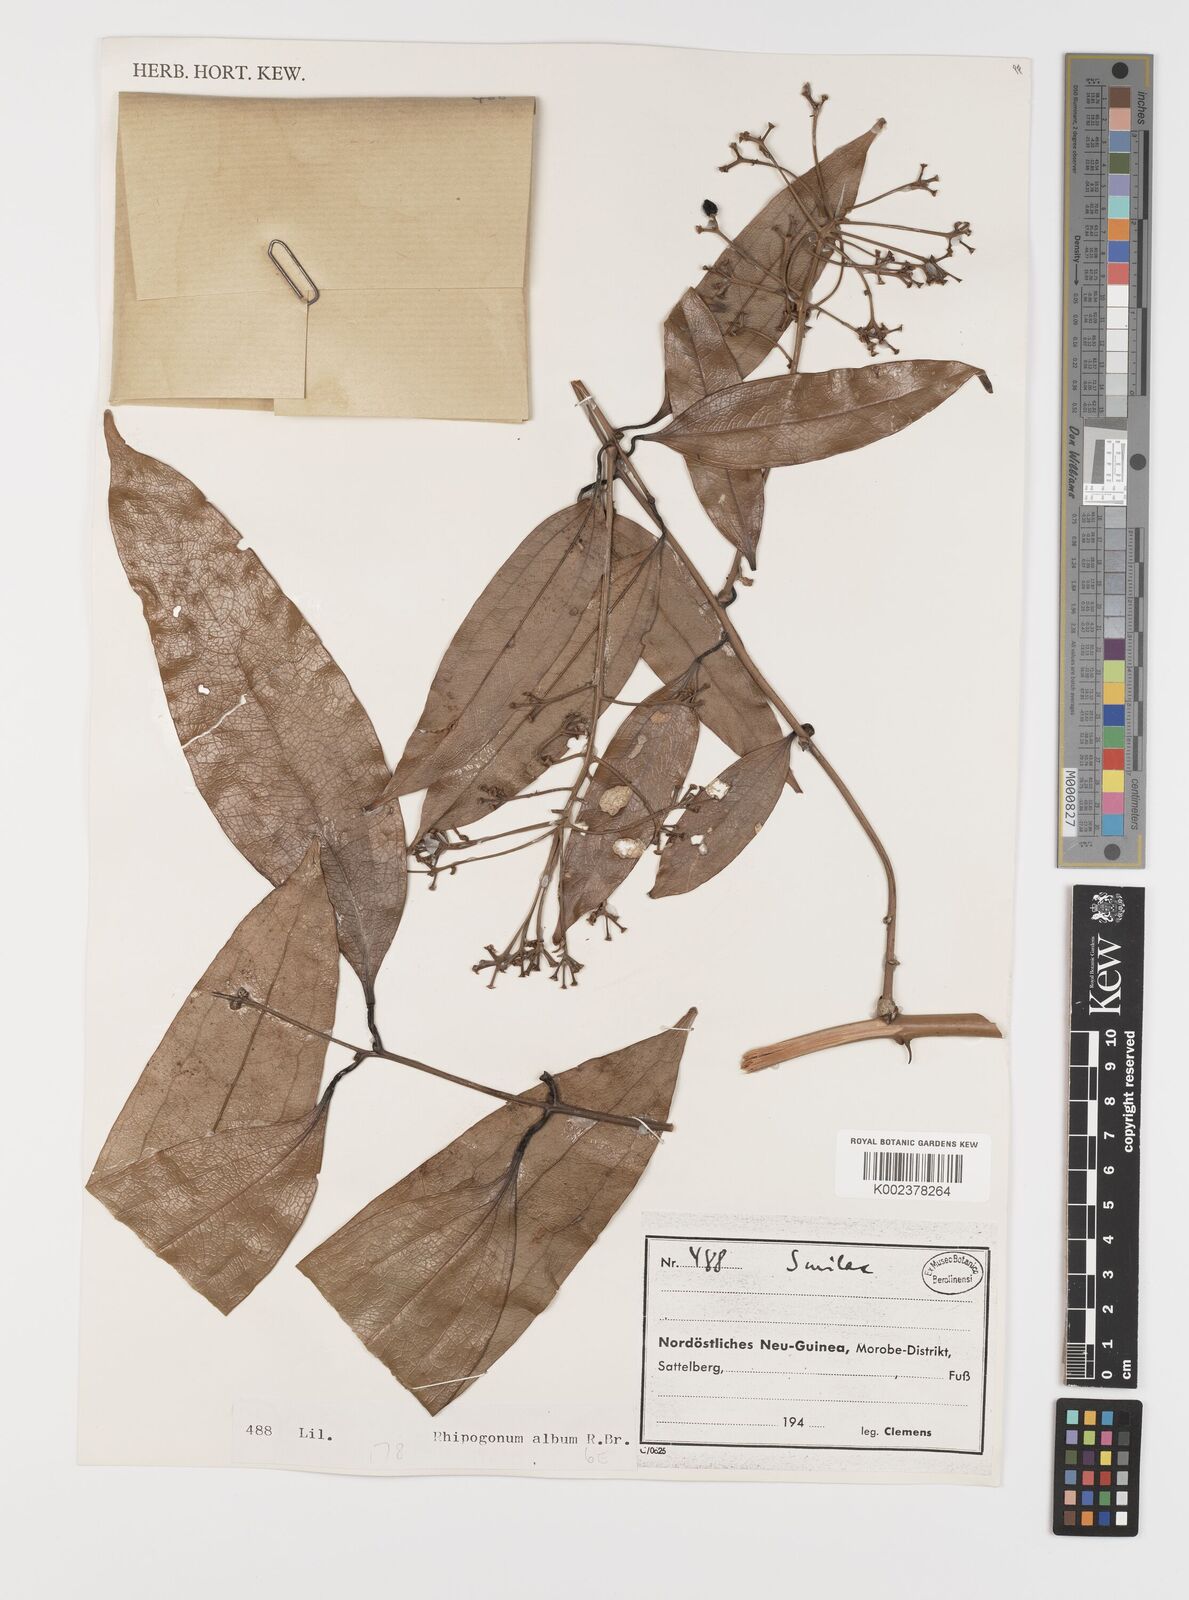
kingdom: Plantae
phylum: Tracheophyta
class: Liliopsida
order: Liliales
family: Smilacaceae
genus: Smilax
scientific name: Smilax
